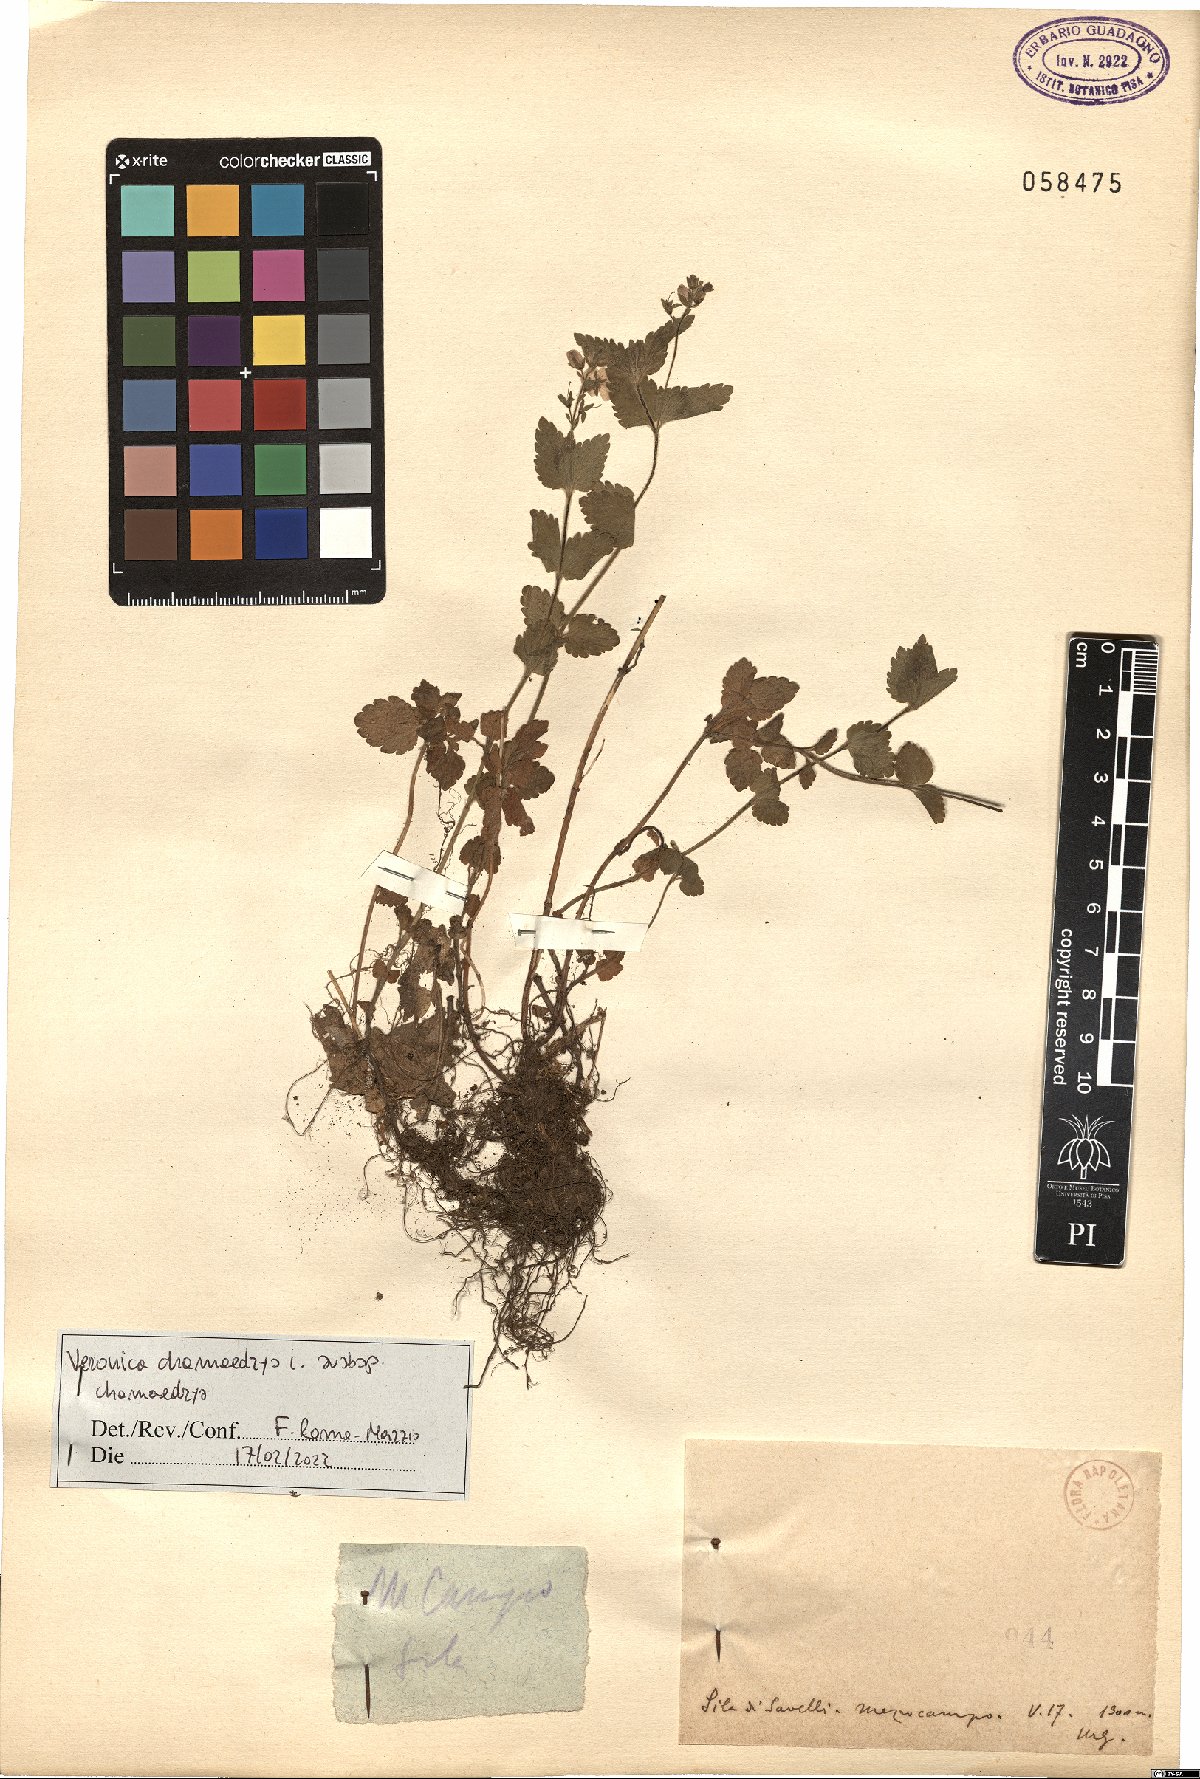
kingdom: Plantae
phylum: Tracheophyta
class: Magnoliopsida
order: Lamiales
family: Plantaginaceae
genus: Veronica
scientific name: Veronica chamaedrys
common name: Germander speedwell
